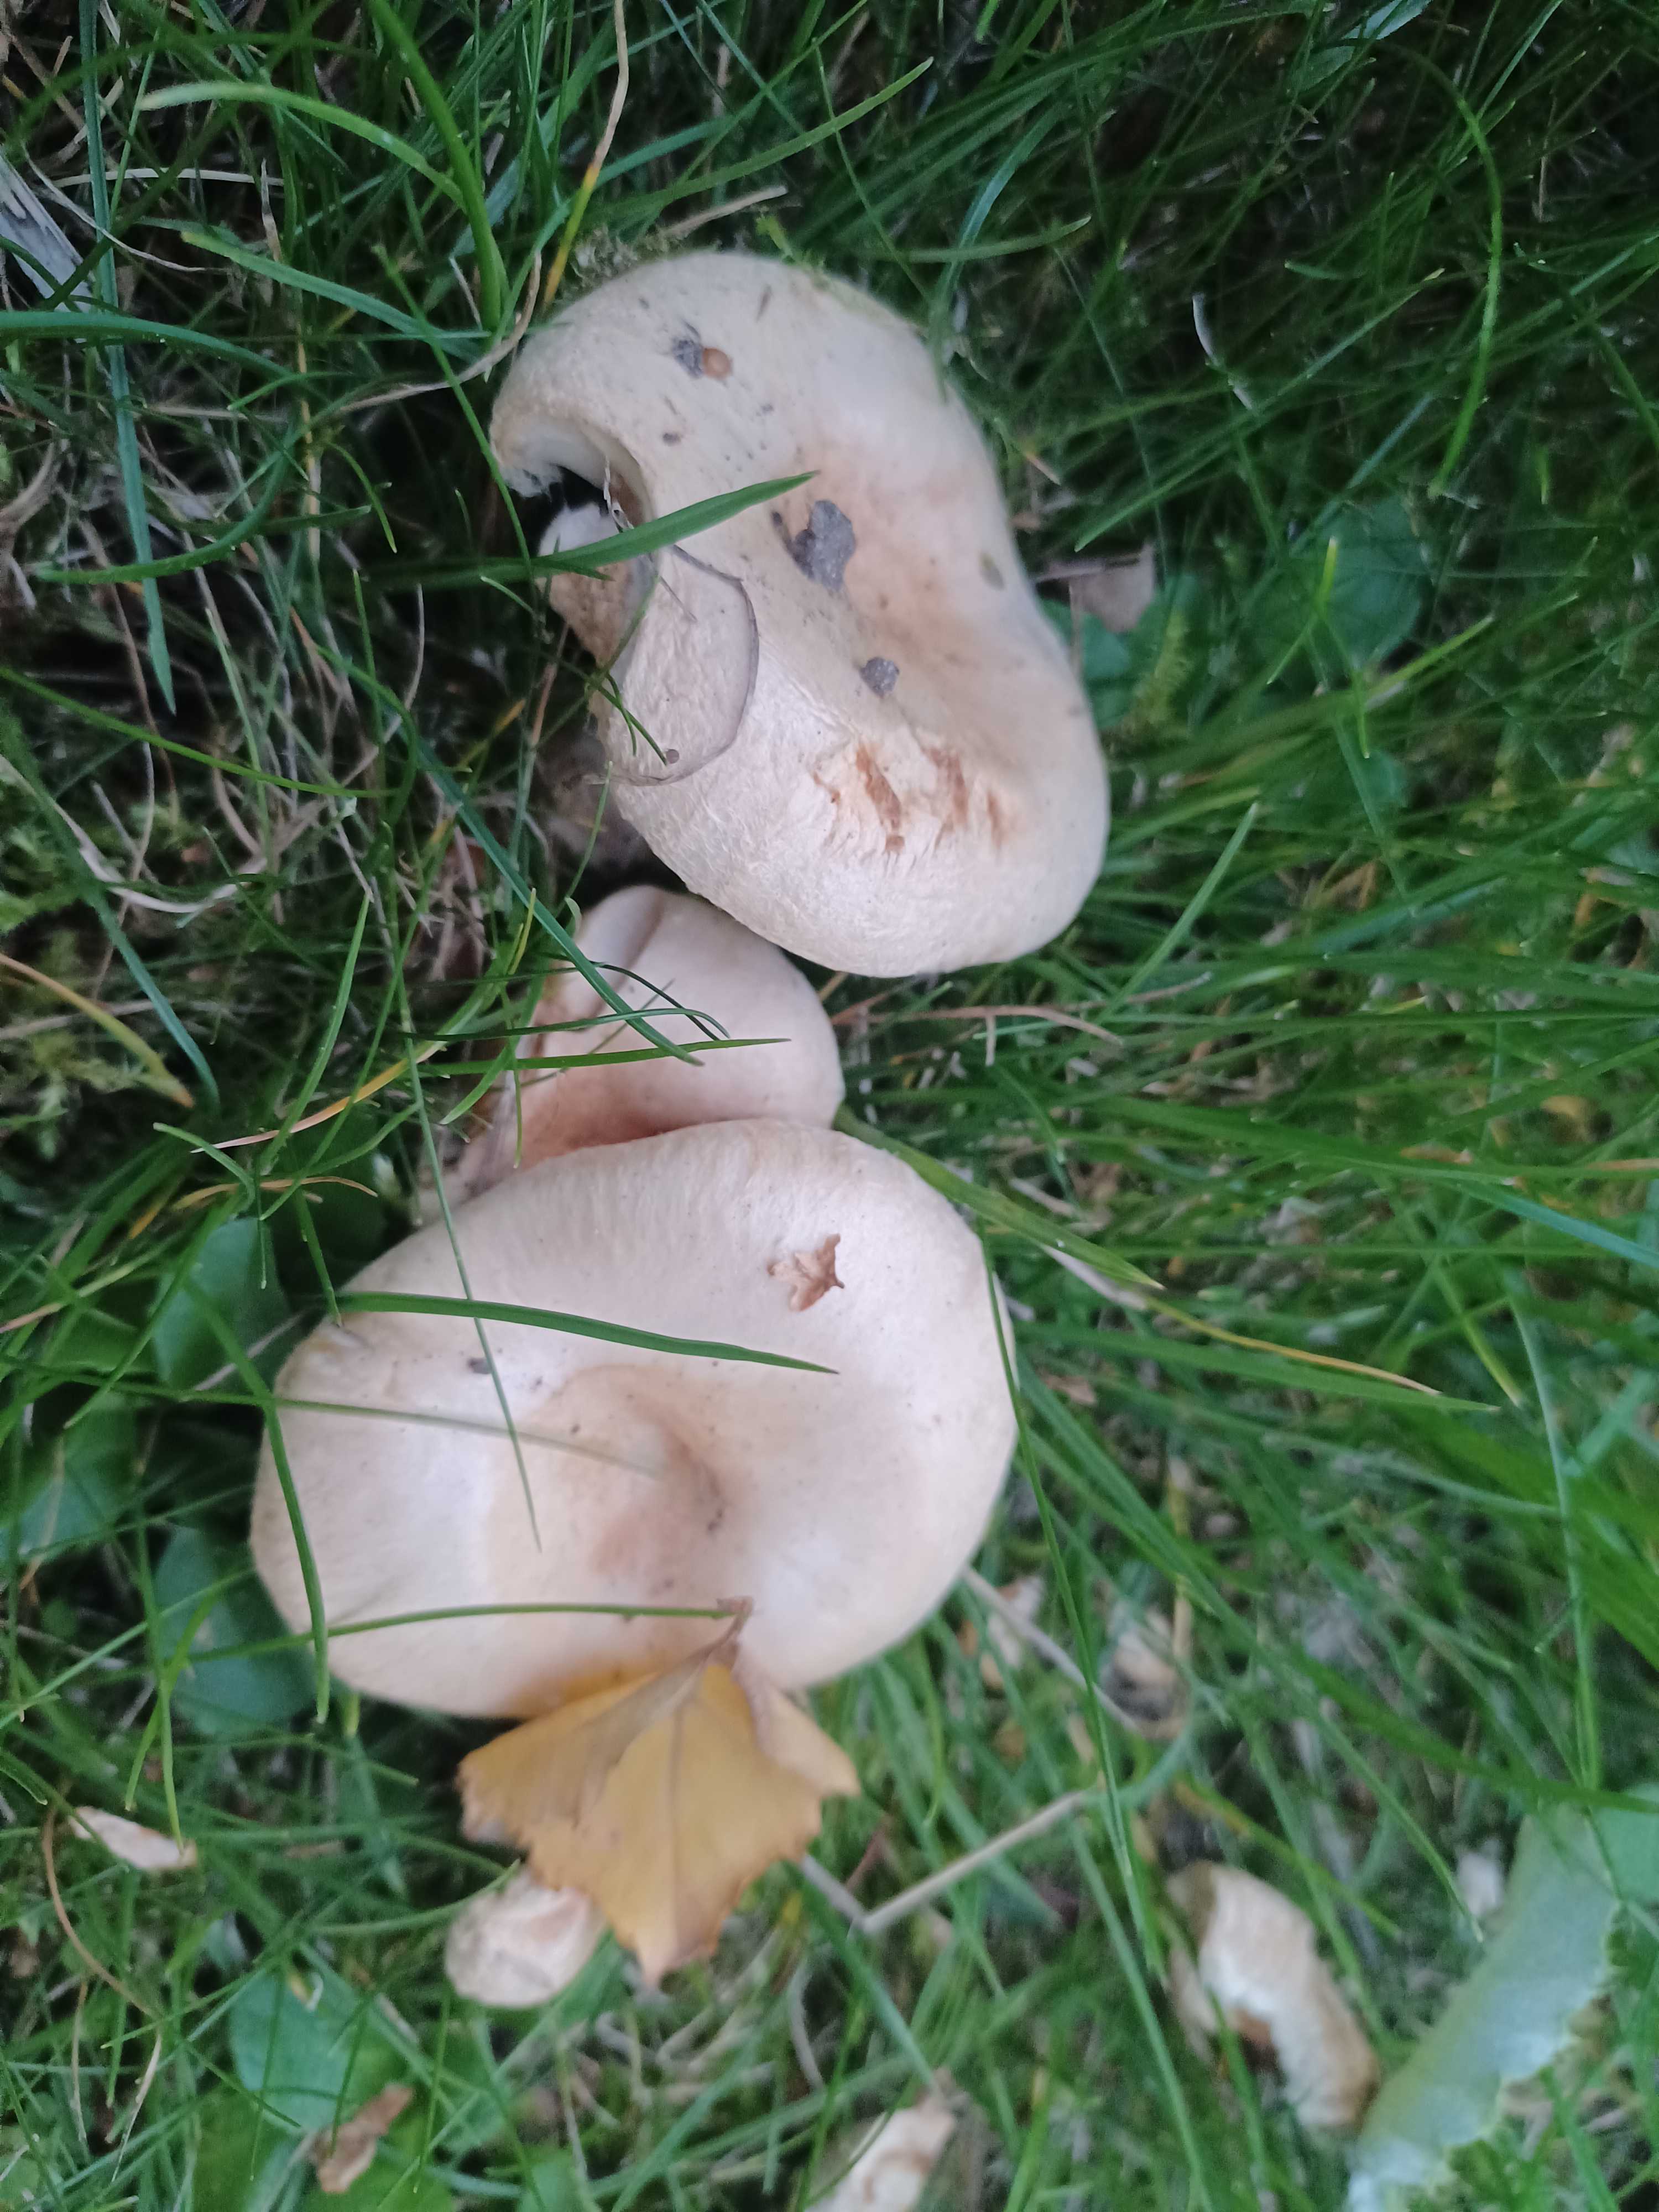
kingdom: Fungi
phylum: Basidiomycota
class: Agaricomycetes
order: Russulales
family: Russulaceae
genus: Lactarius
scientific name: Lactarius pubescens
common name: dunet mælkehat
